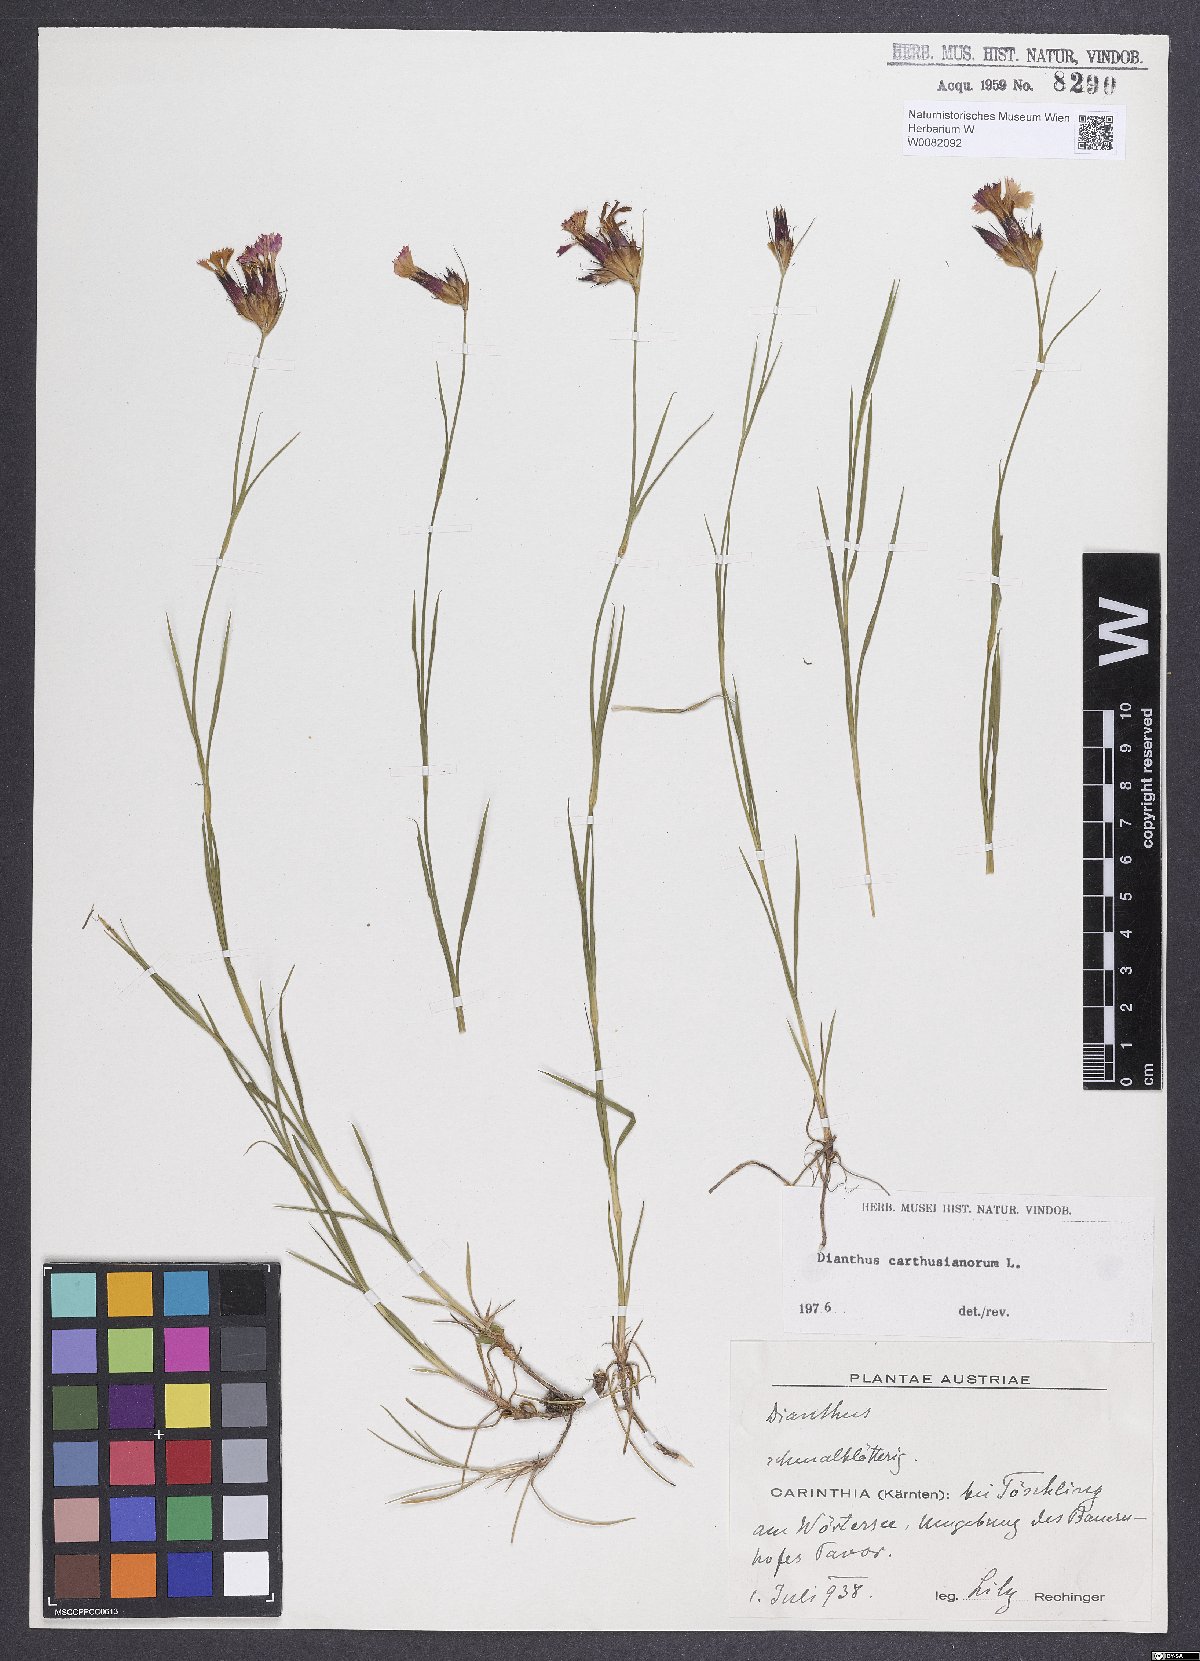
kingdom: Plantae
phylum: Tracheophyta
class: Magnoliopsida
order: Caryophyllales
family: Caryophyllaceae
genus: Dianthus
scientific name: Dianthus carthusianorum
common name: Carthusian pink
